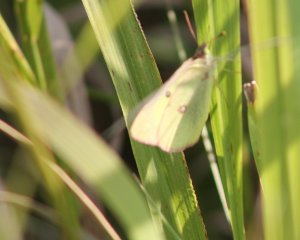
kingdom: Animalia
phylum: Arthropoda
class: Insecta
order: Lepidoptera
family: Pieridae
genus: Colias
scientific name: Colias philodice
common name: Clouded Sulphur
